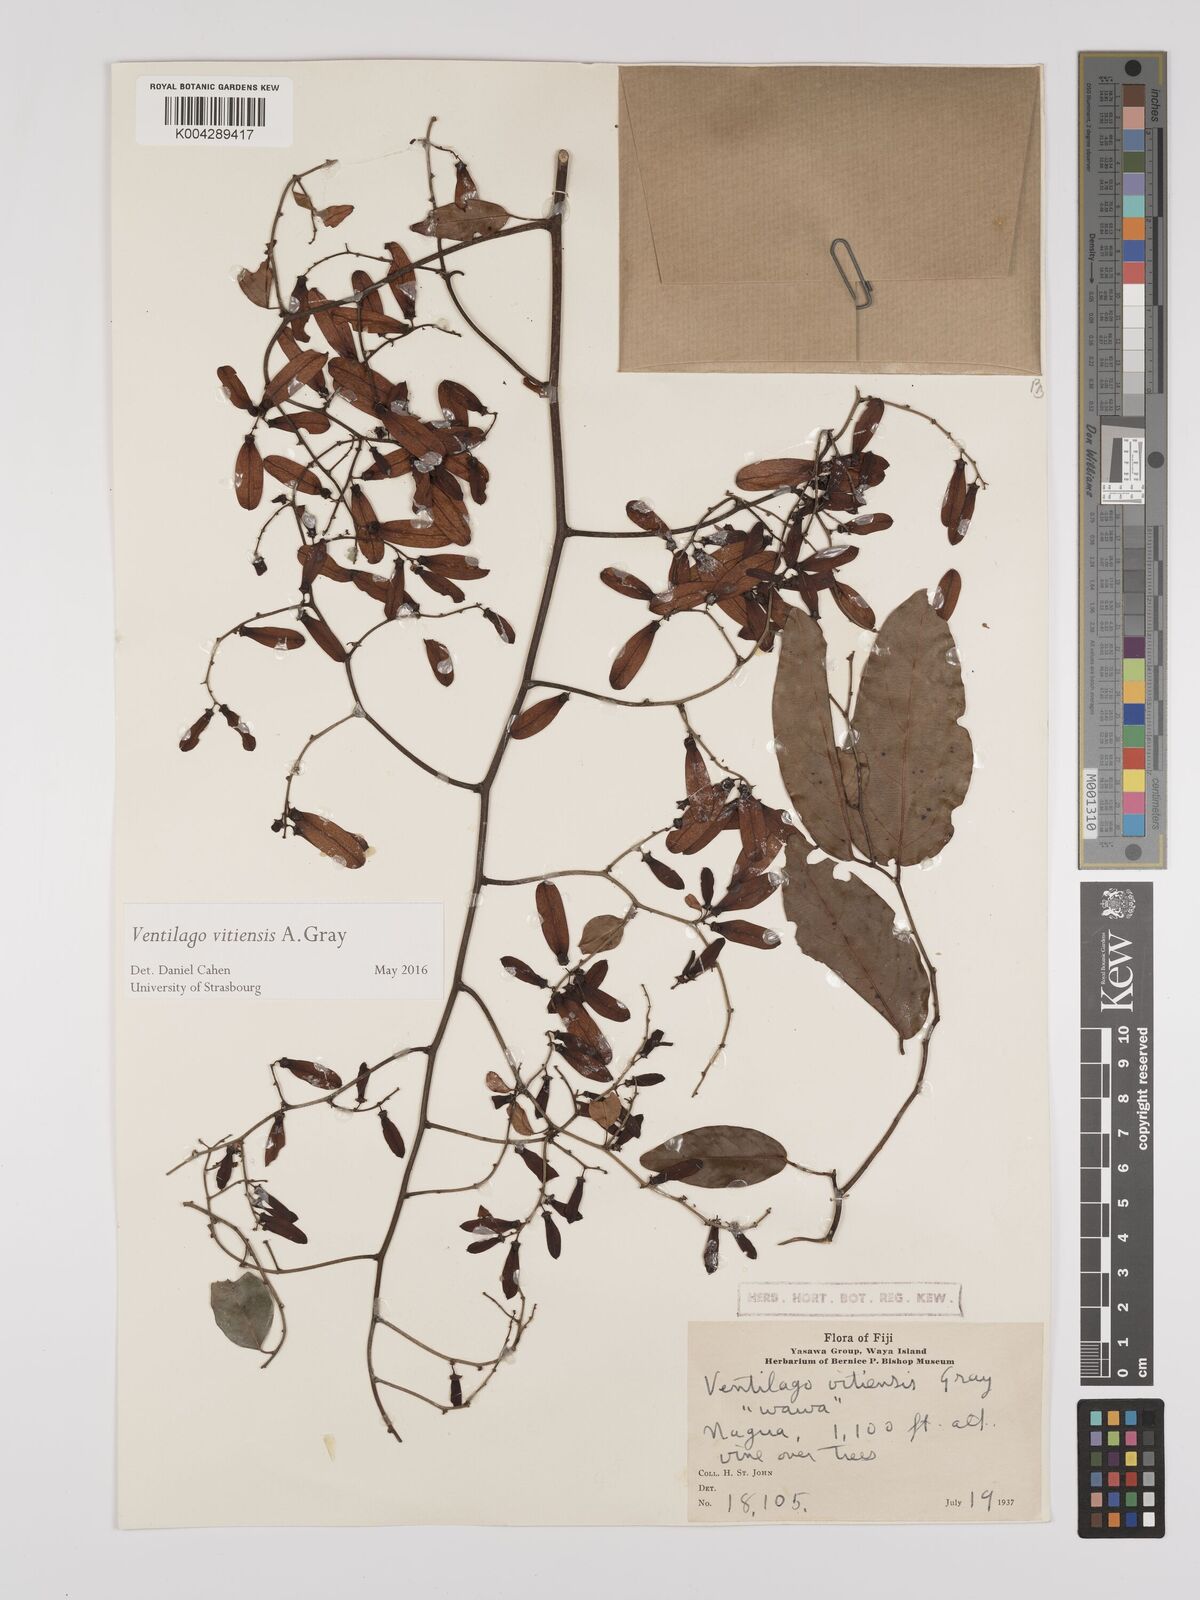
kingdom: Plantae
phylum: Tracheophyta
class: Magnoliopsida
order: Rosales
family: Rhamnaceae
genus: Ventilago
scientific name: Ventilago vitiensis
